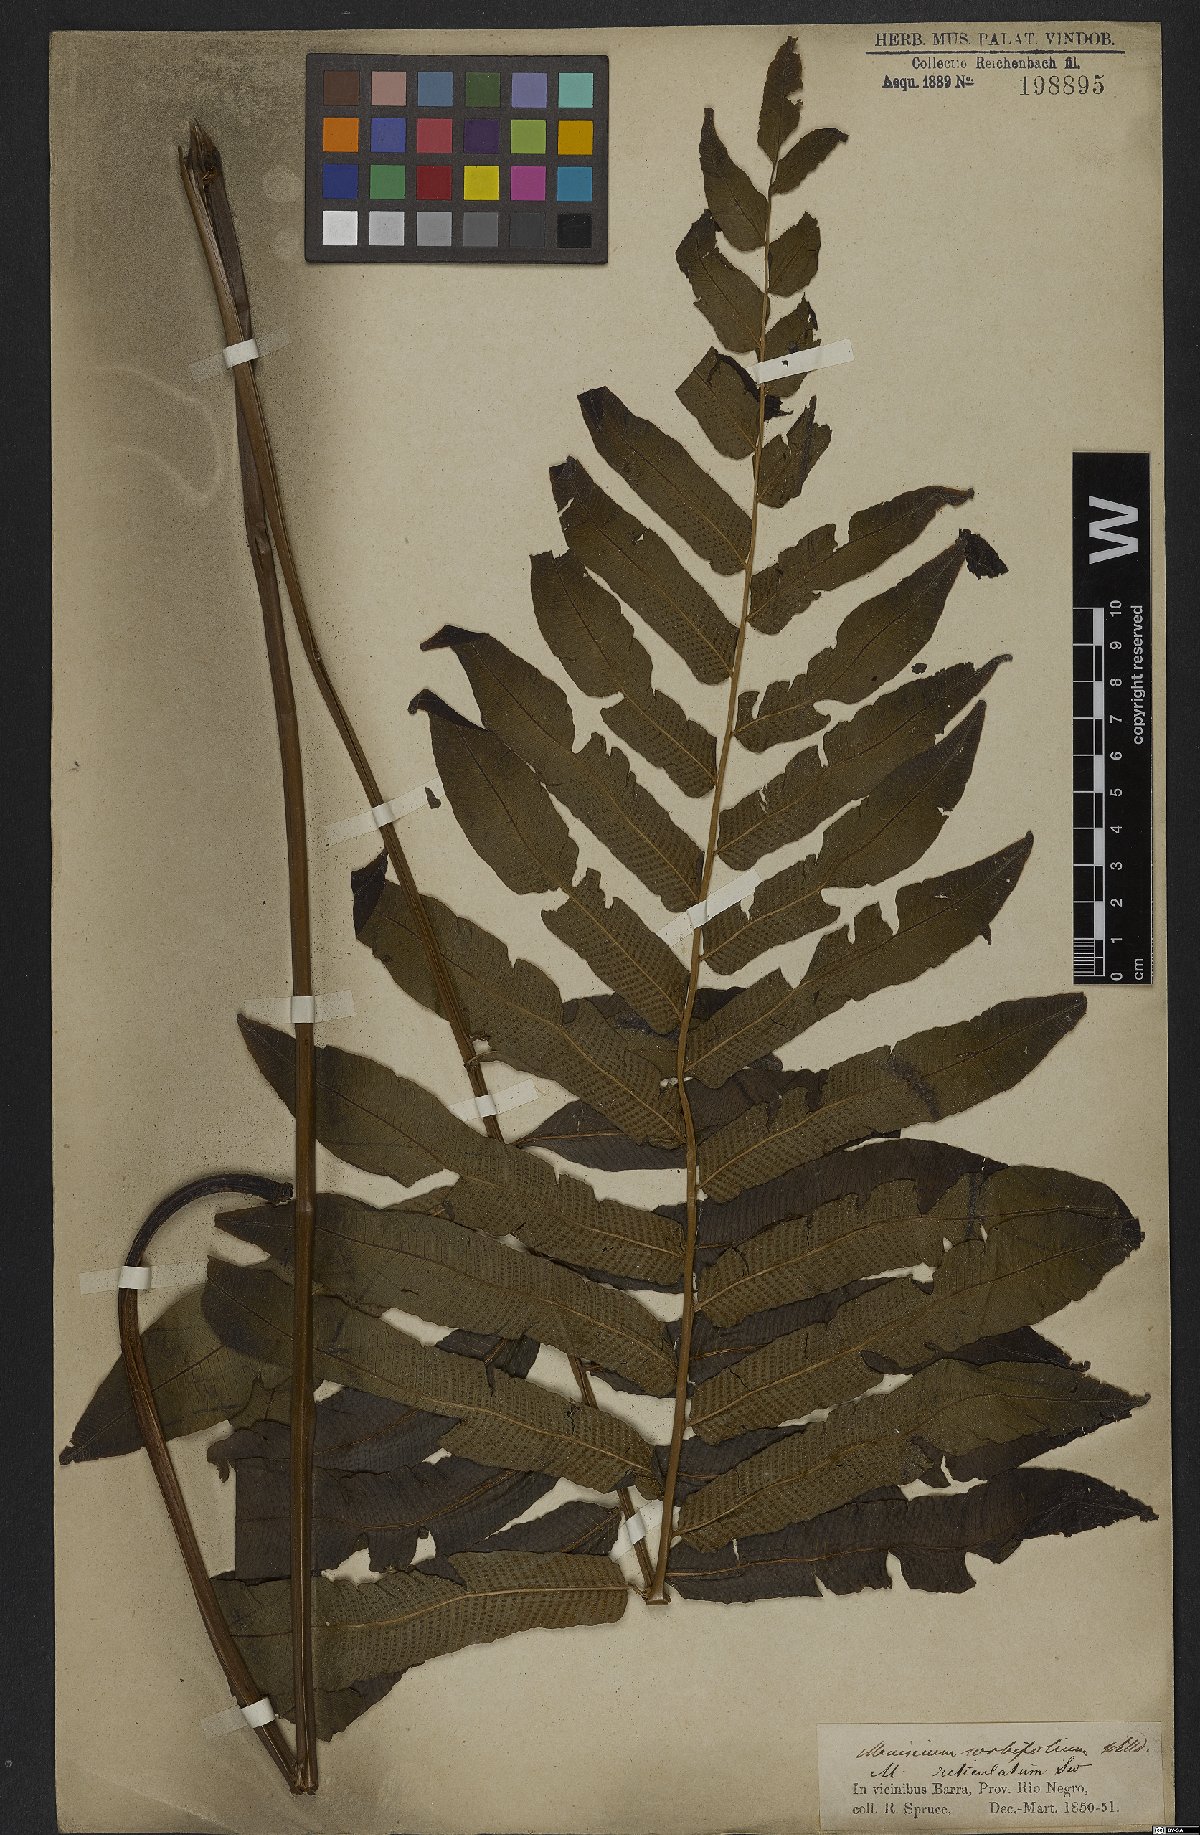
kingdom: Plantae
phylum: Tracheophyta
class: Polypodiopsida
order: Polypodiales
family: Thelypteridaceae
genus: Meniscium
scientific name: Meniscium reticulatum
